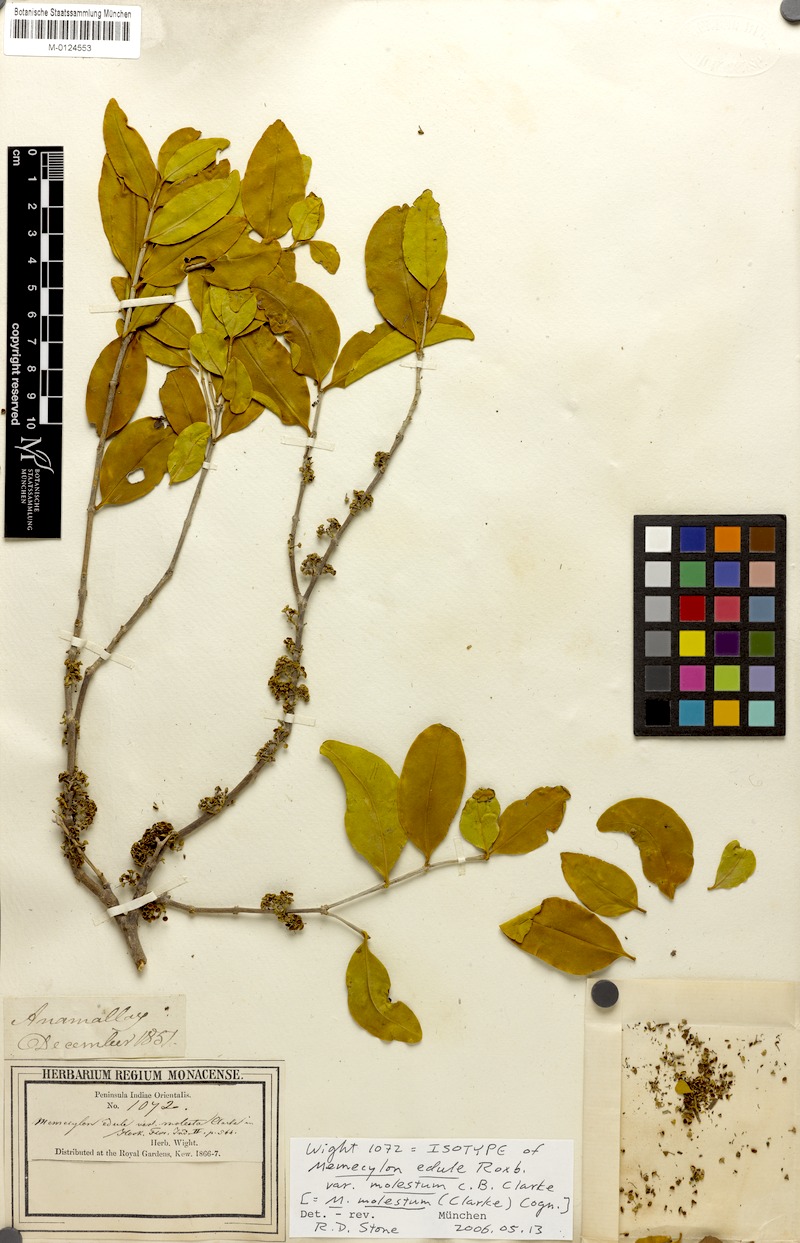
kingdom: Plantae
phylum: Tracheophyta
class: Magnoliopsida
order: Myrtales
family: Melastomataceae
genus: Memecylon
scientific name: Memecylon umbellatum
